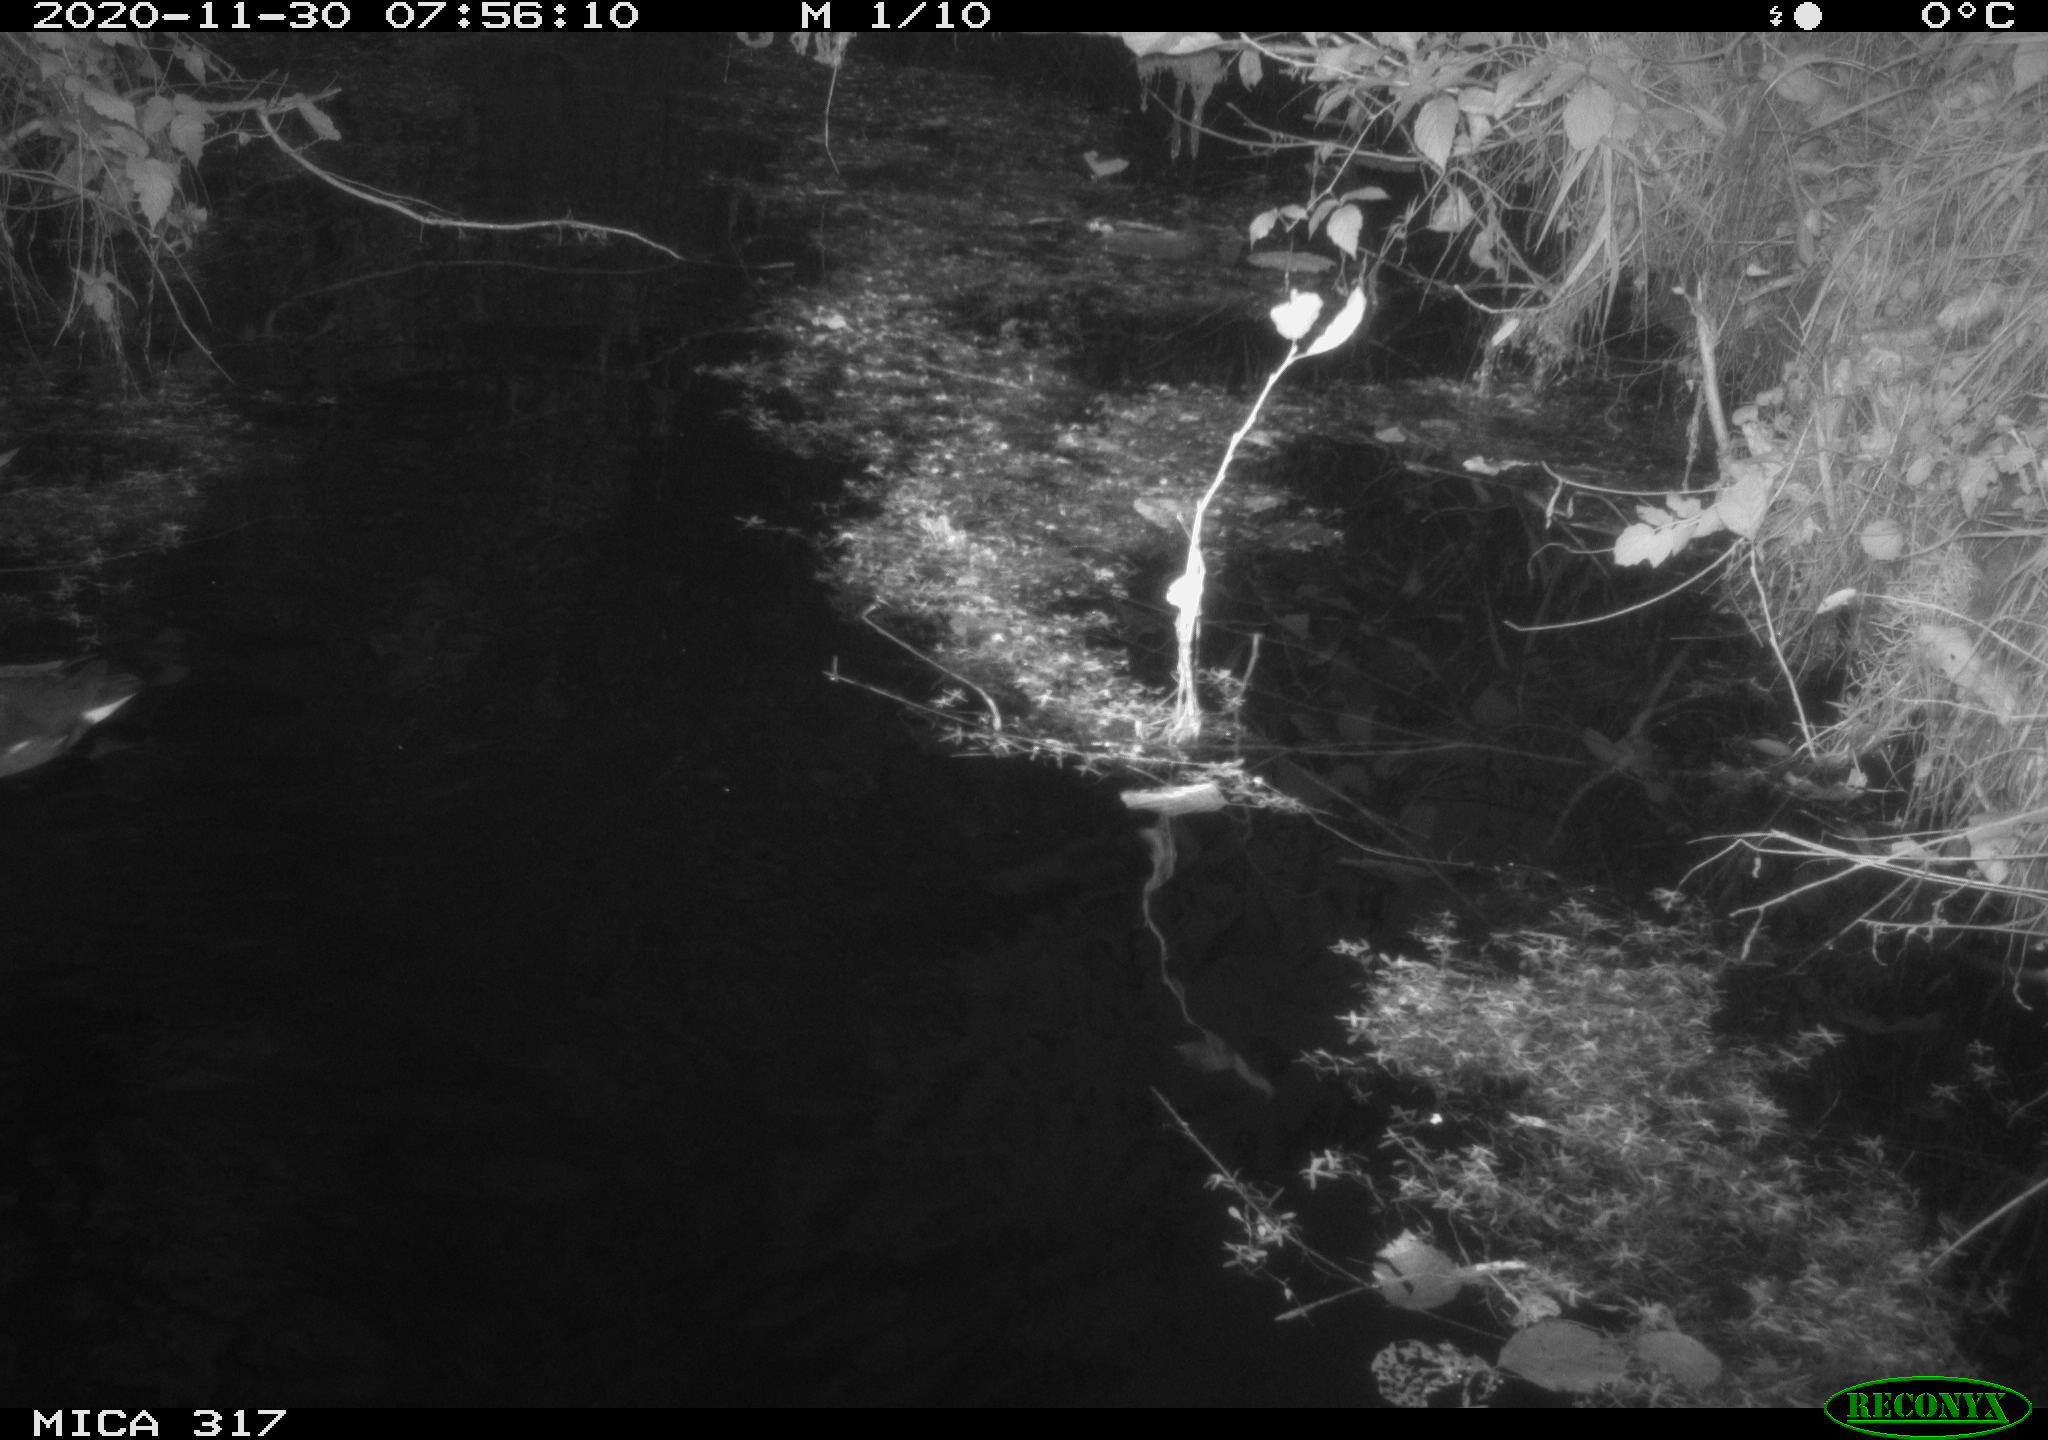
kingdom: Animalia
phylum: Chordata
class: Aves
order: Gruiformes
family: Rallidae
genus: Gallinula
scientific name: Gallinula chloropus
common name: Common moorhen
